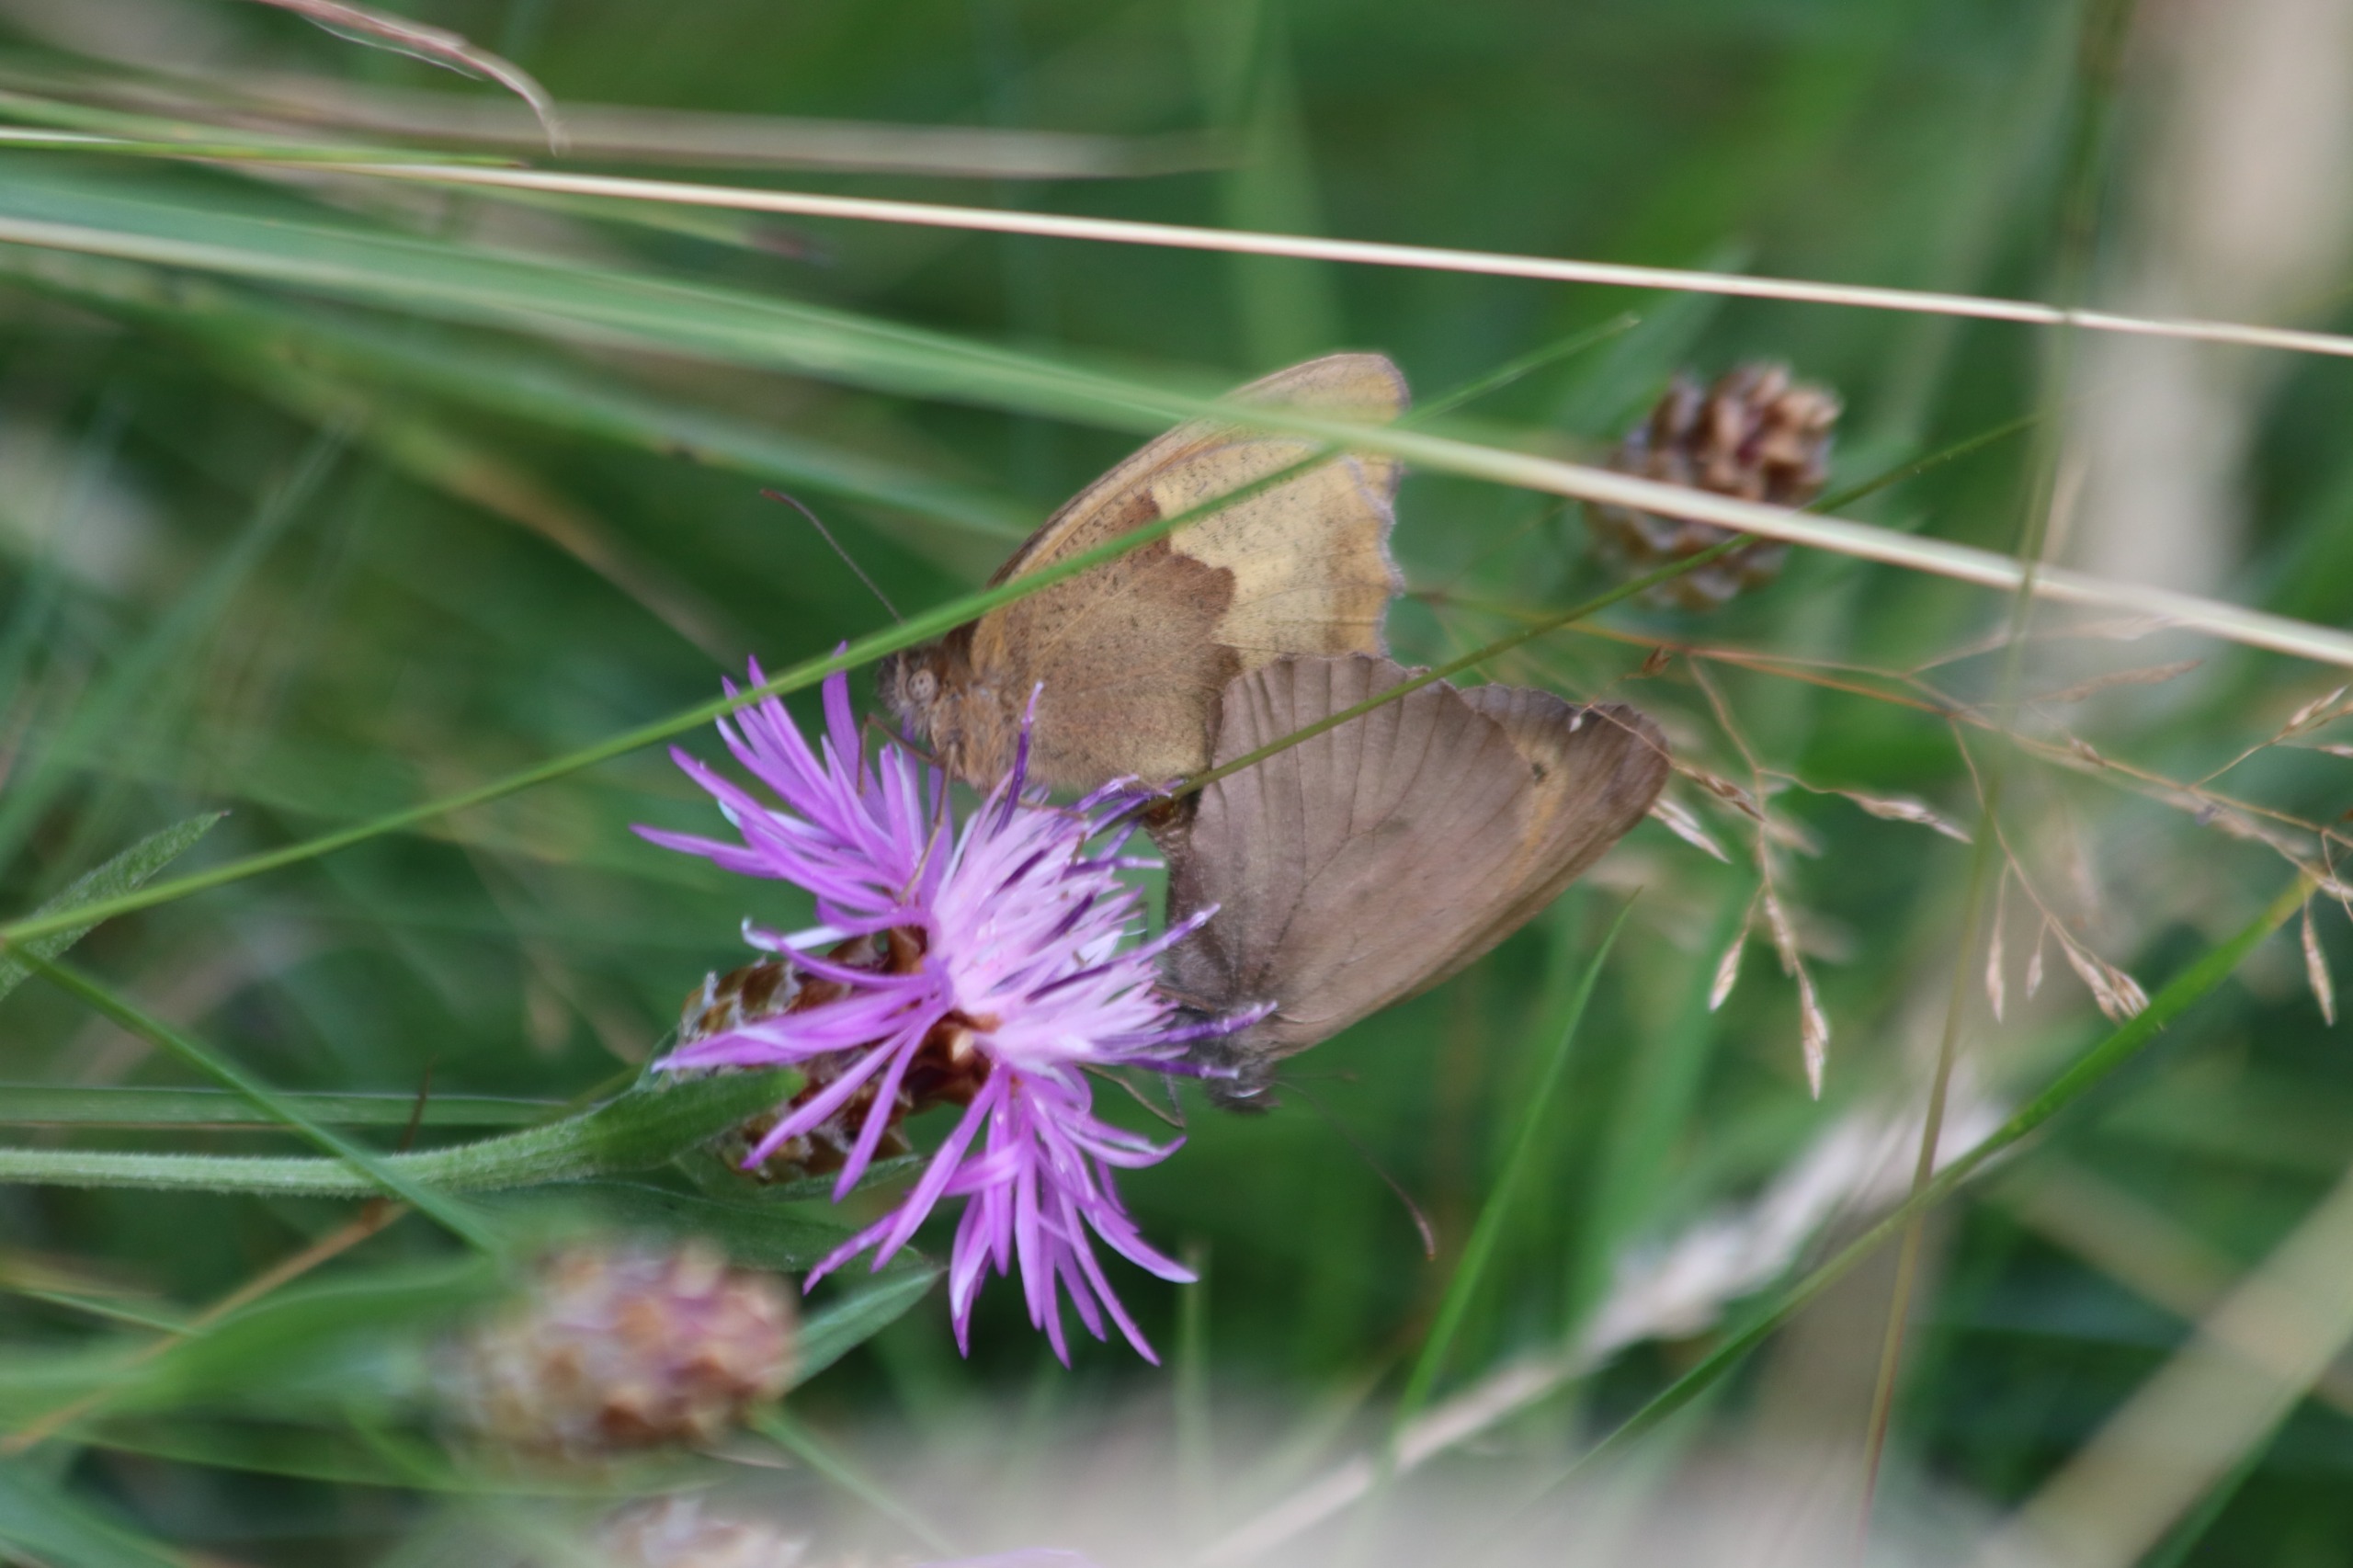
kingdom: Animalia
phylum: Arthropoda
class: Insecta
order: Lepidoptera
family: Nymphalidae
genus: Maniola
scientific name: Maniola jurtina
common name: Græsrandøje
